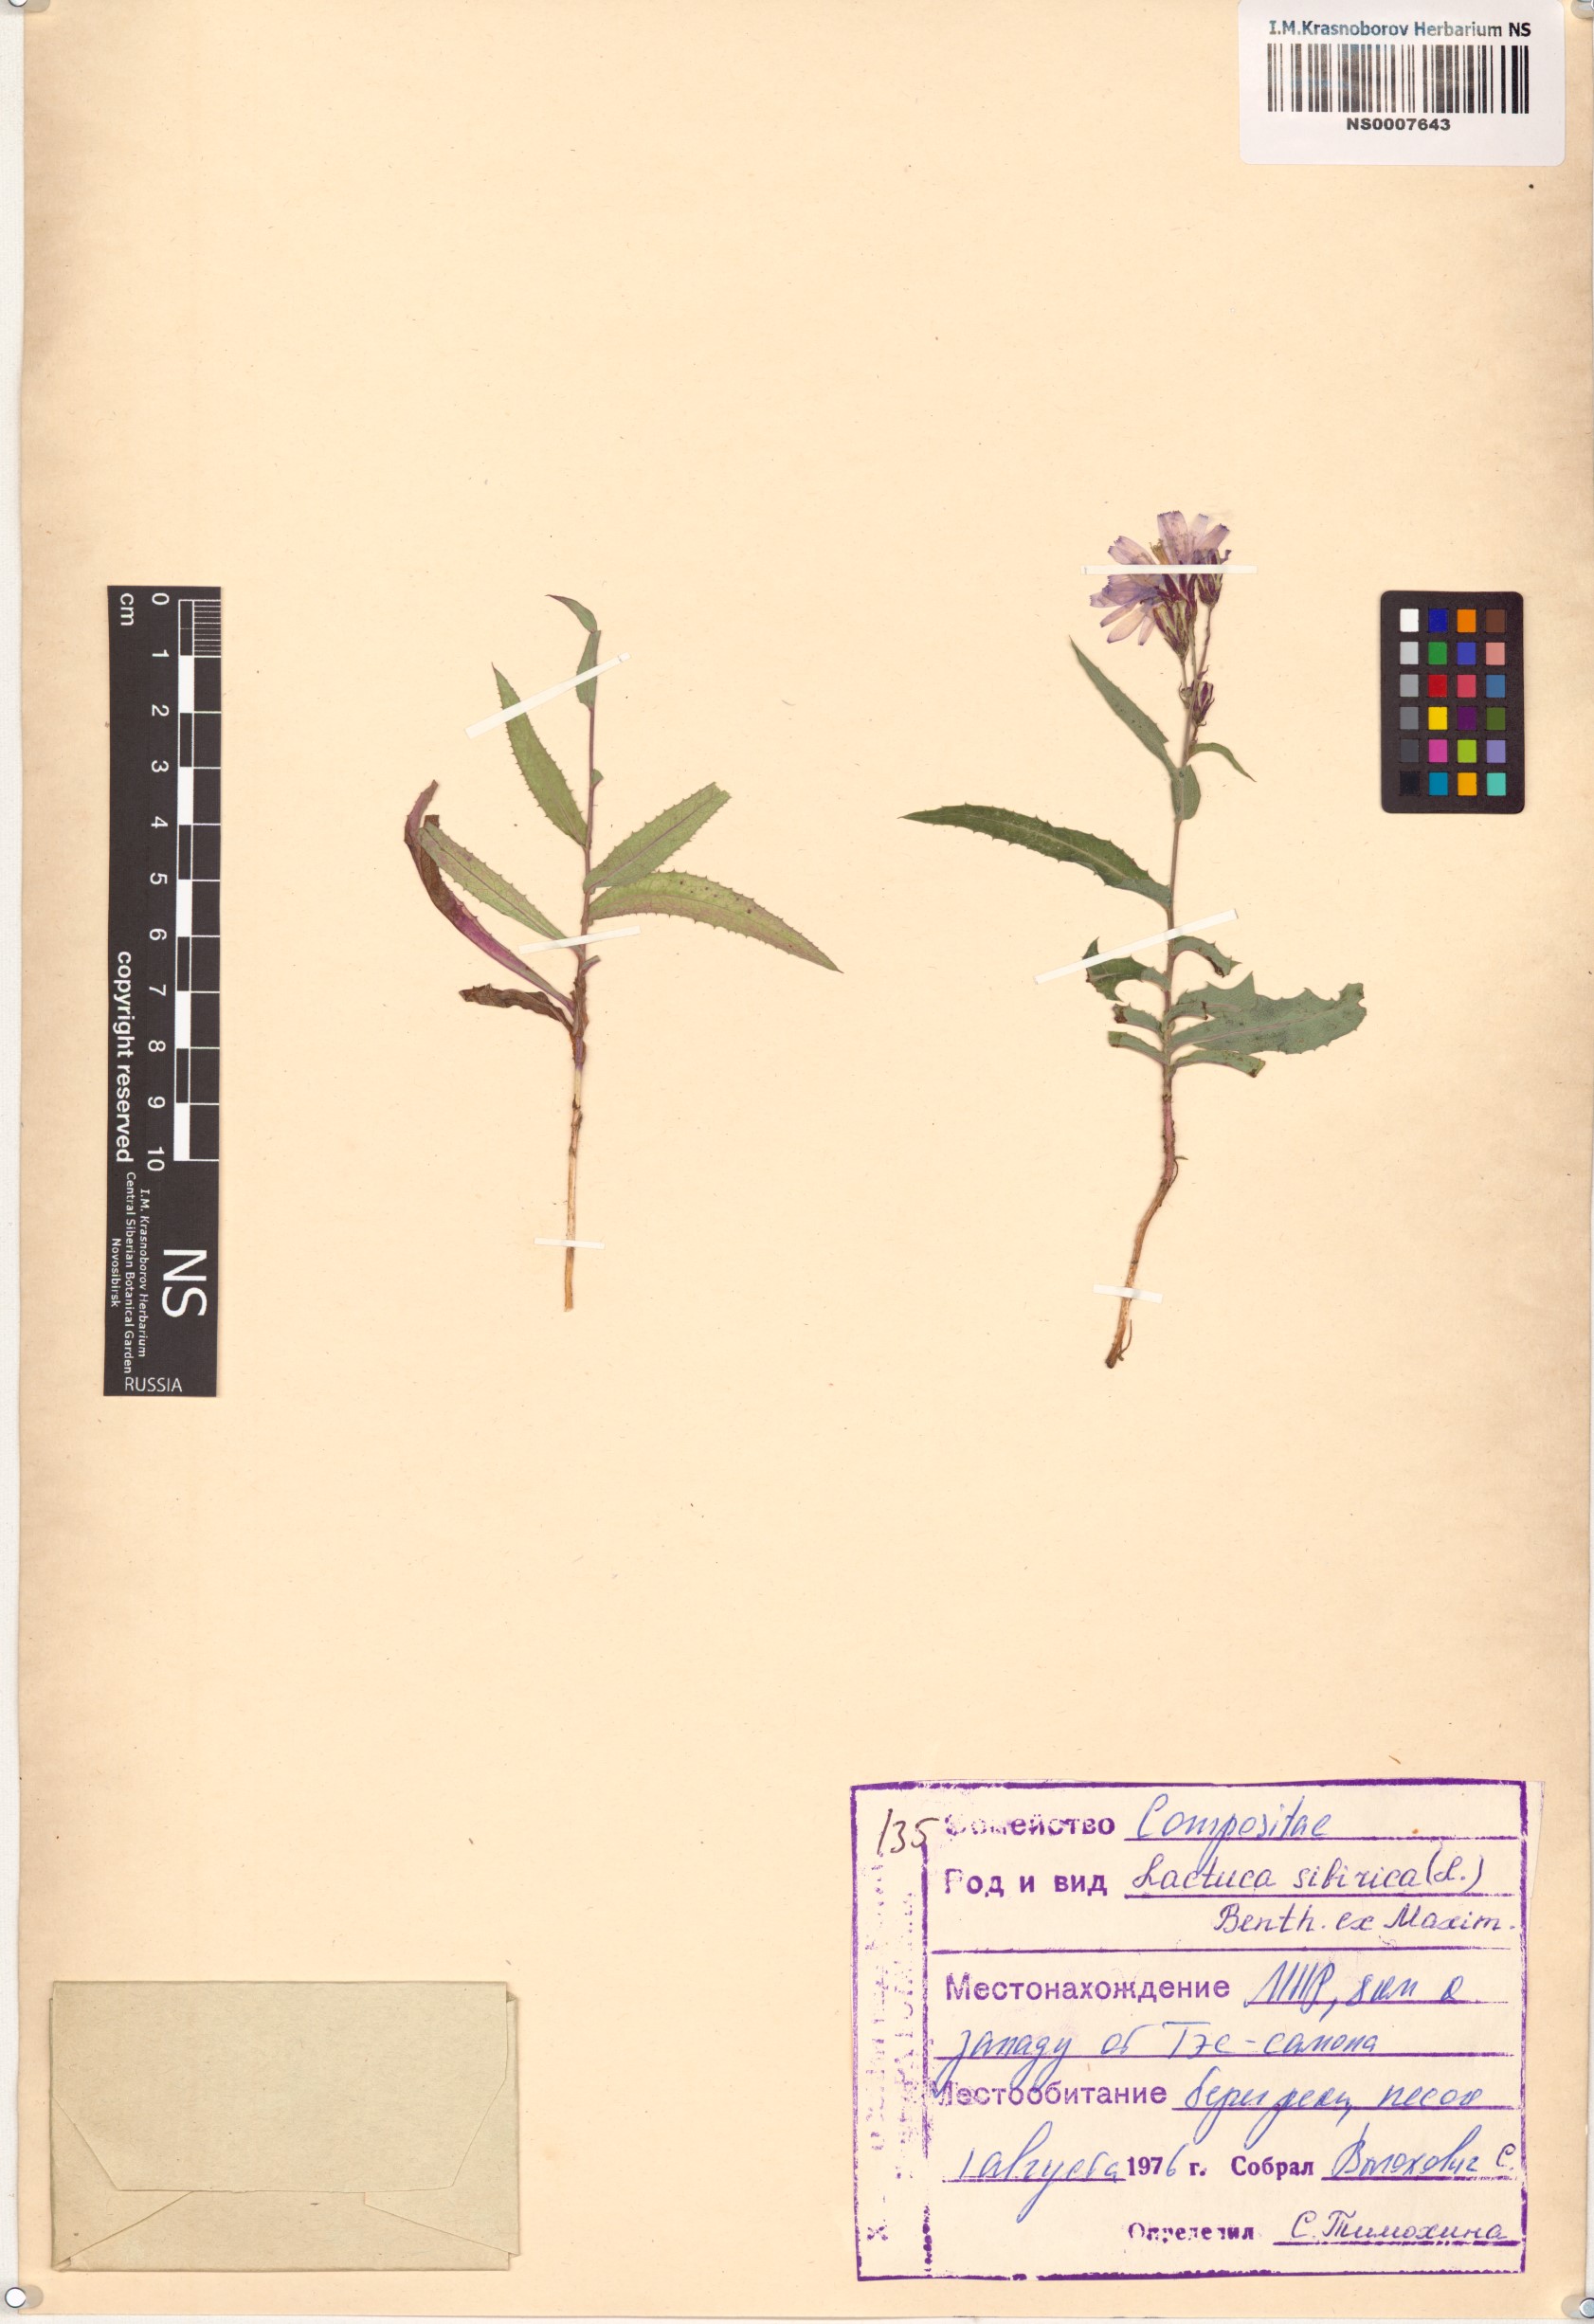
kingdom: Plantae
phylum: Tracheophyta
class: Magnoliopsida
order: Asterales
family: Asteraceae
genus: Lactuca
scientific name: Lactuca sibirica
